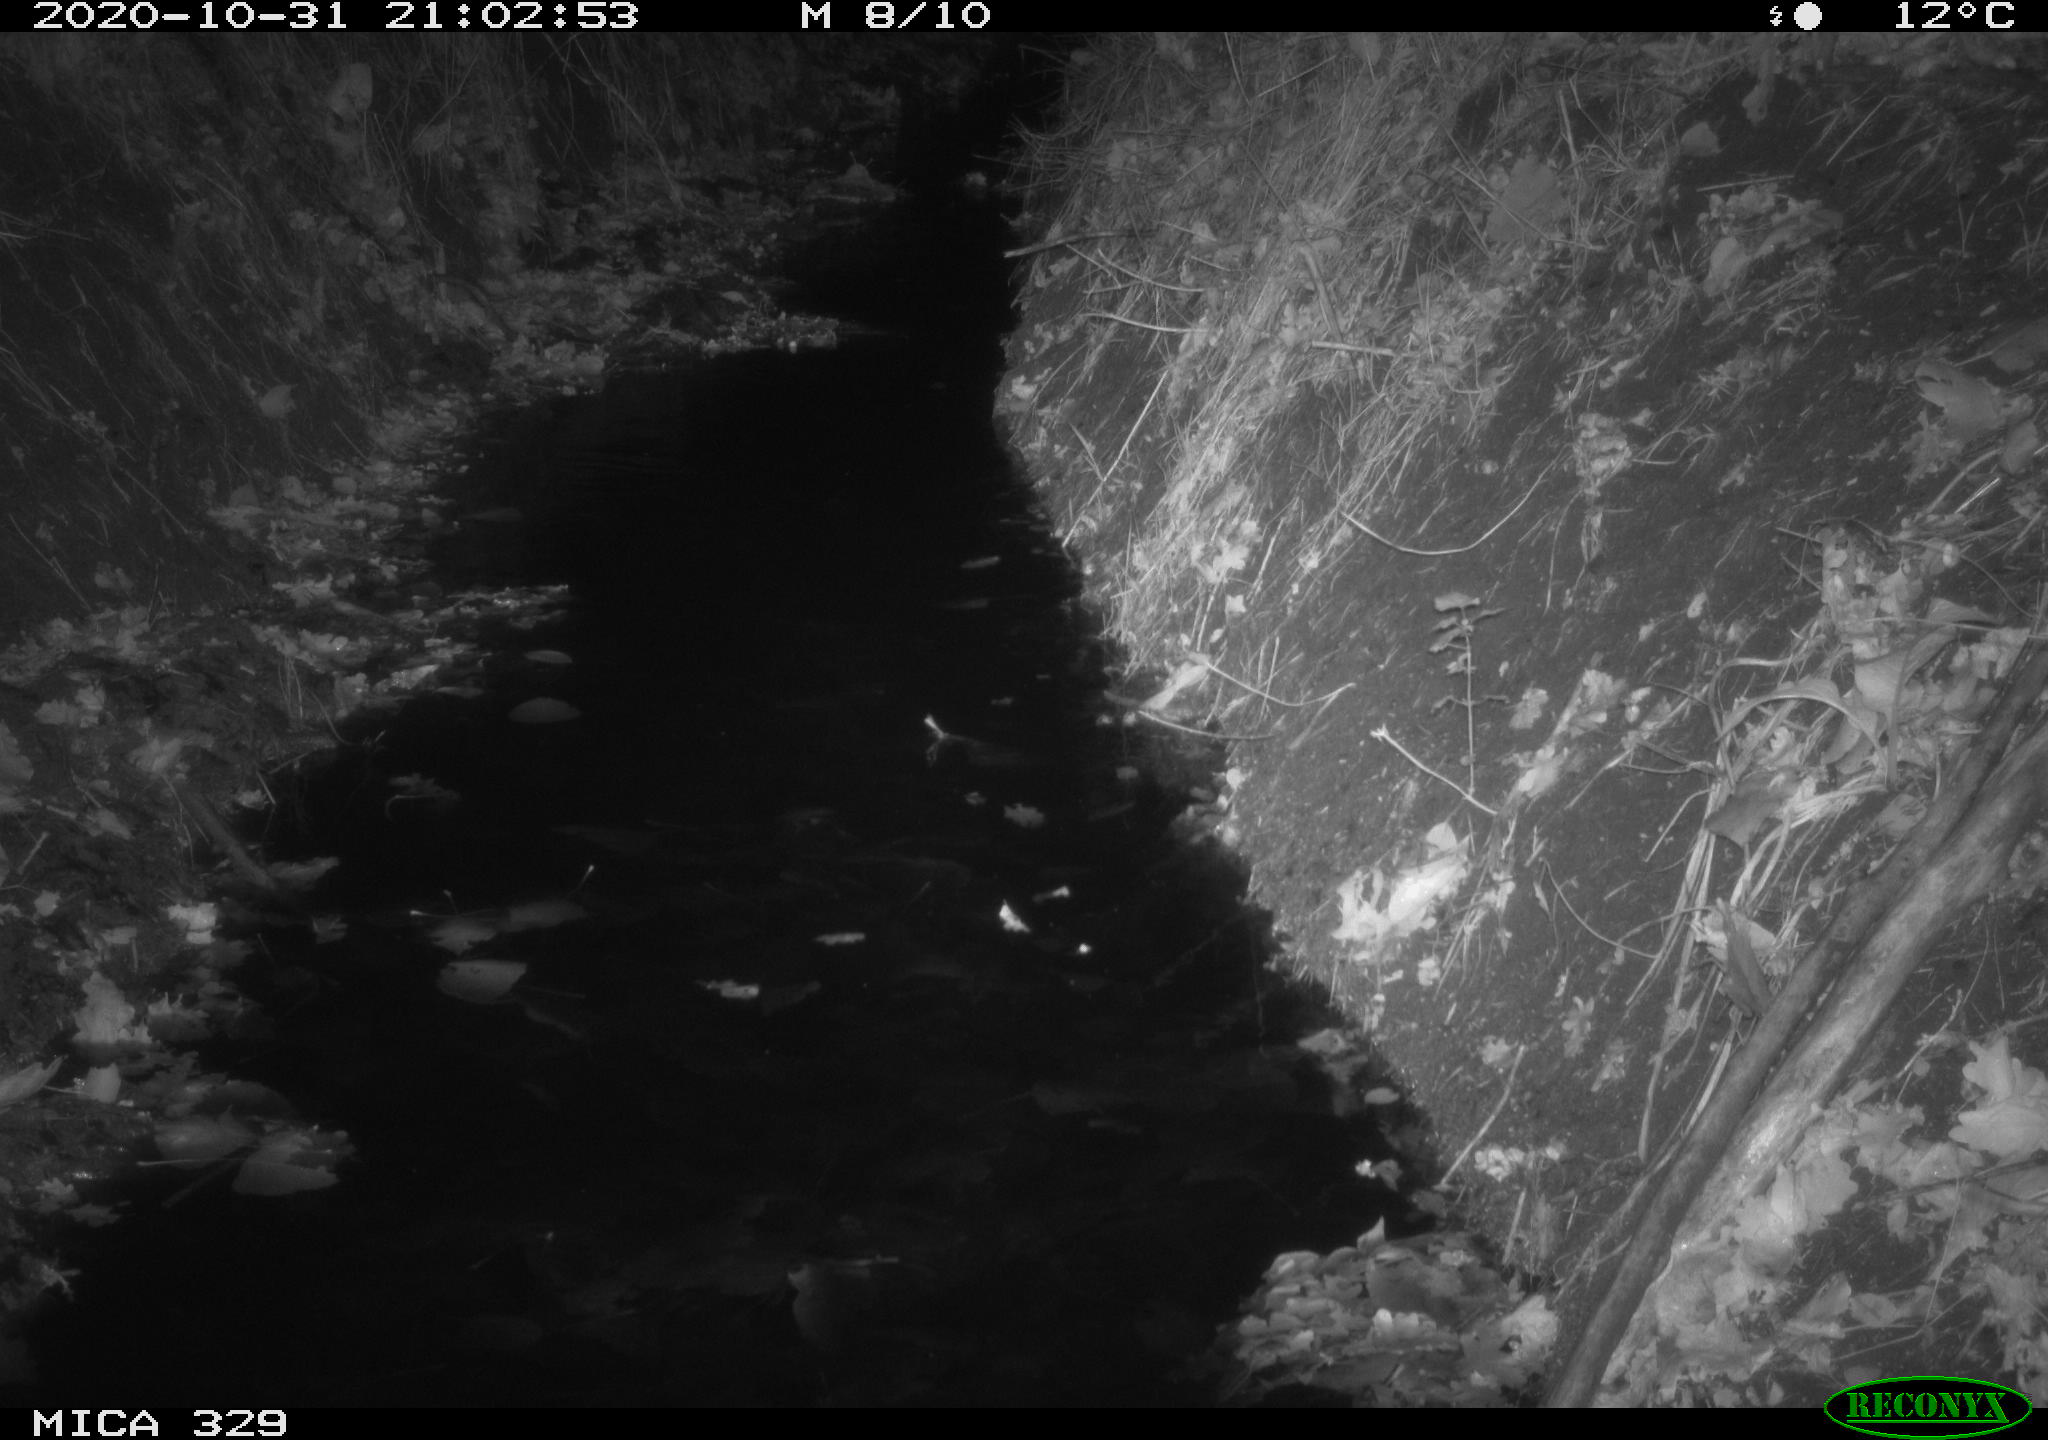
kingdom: Animalia
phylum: Chordata
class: Mammalia
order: Rodentia
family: Muridae
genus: Rattus
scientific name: Rattus norvegicus
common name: Brown rat
